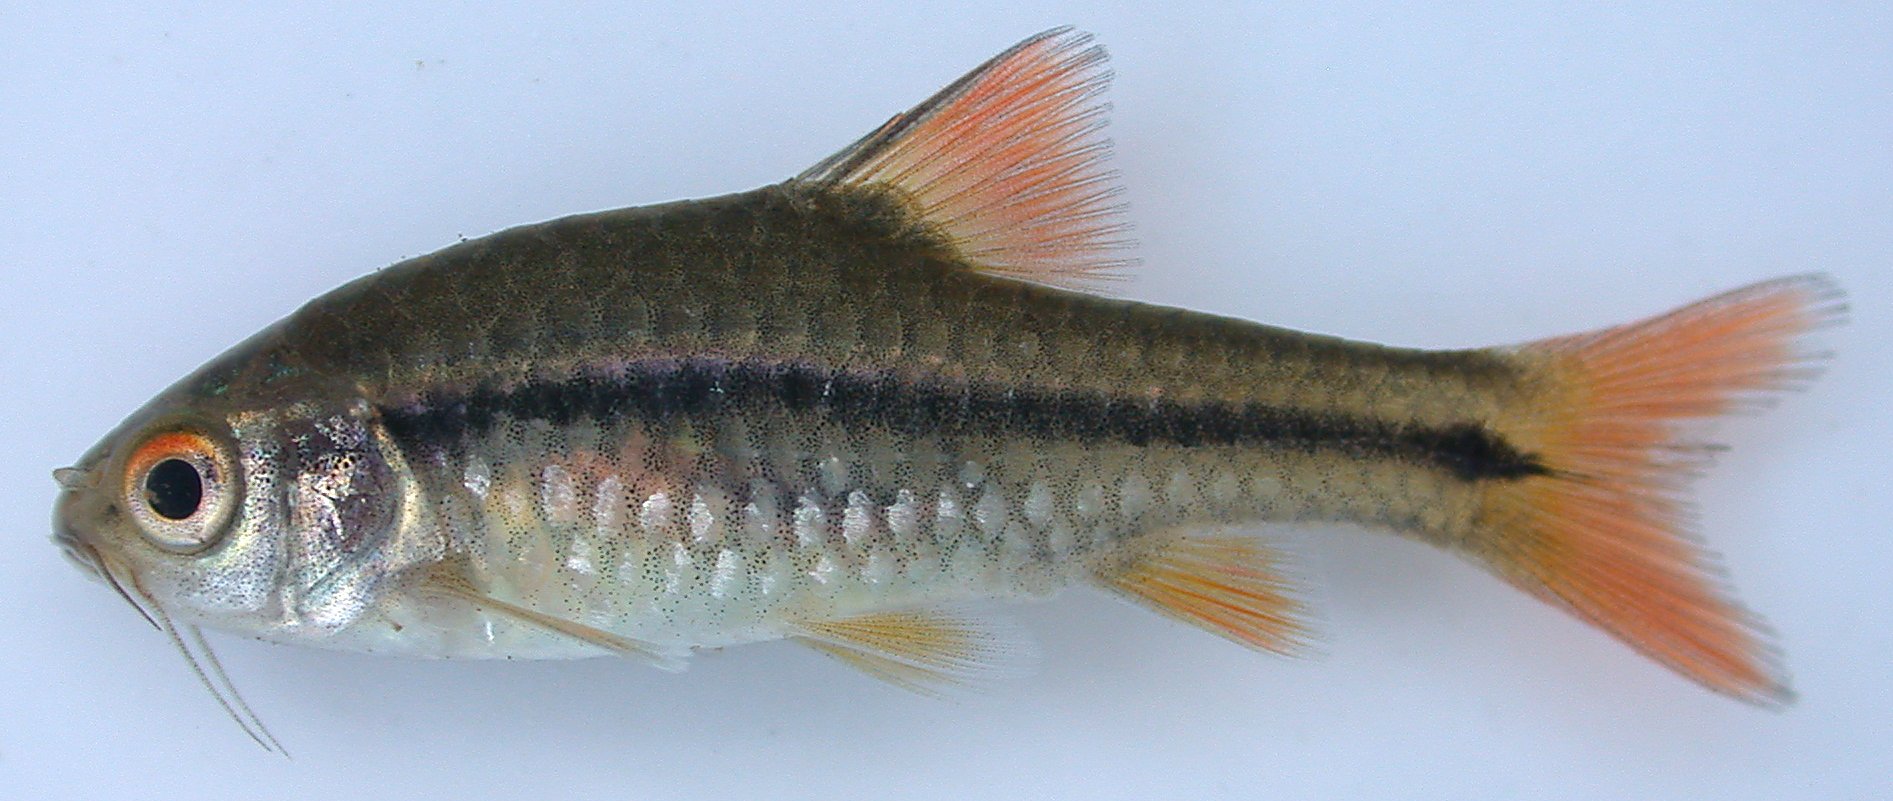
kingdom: Animalia
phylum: Chordata
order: Cypriniformes
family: Cyprinidae
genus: Barbus
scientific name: Barbus
